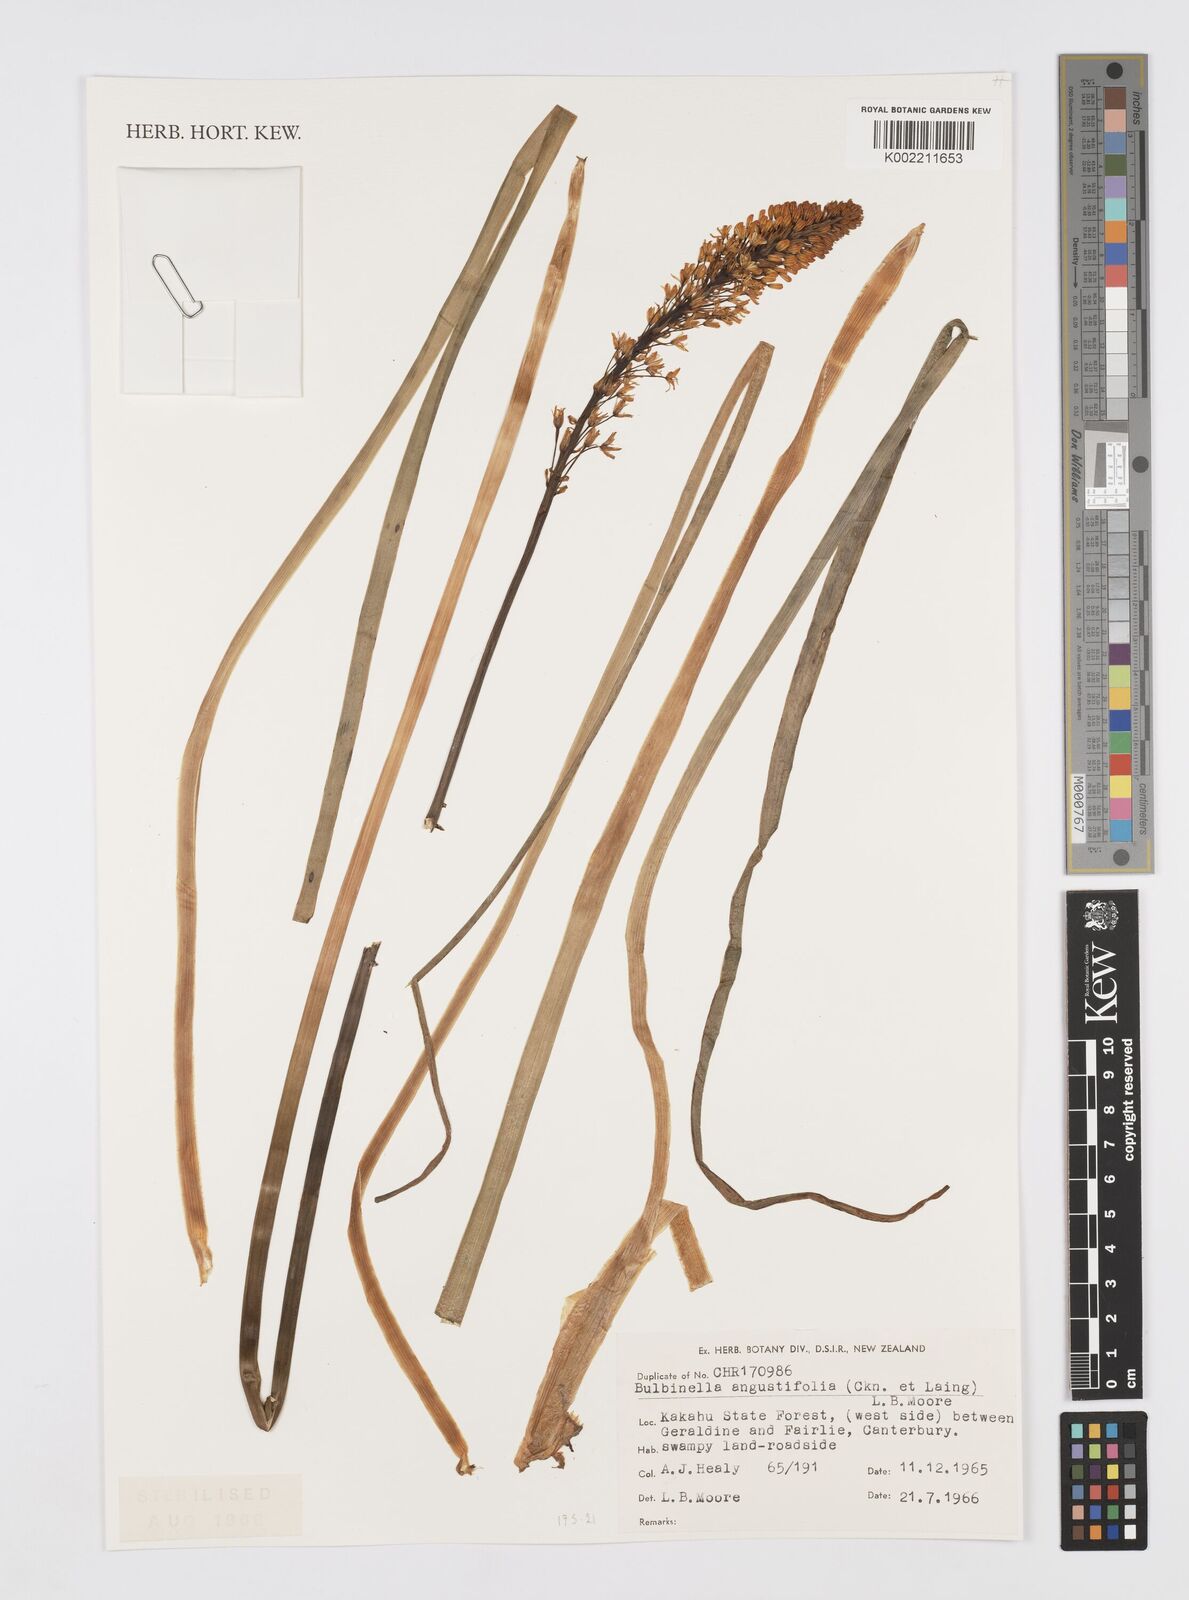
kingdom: Plantae
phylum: Tracheophyta
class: Liliopsida
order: Asparagales
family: Asphodelaceae
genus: Bulbinella
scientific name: Bulbinella angustifolia
